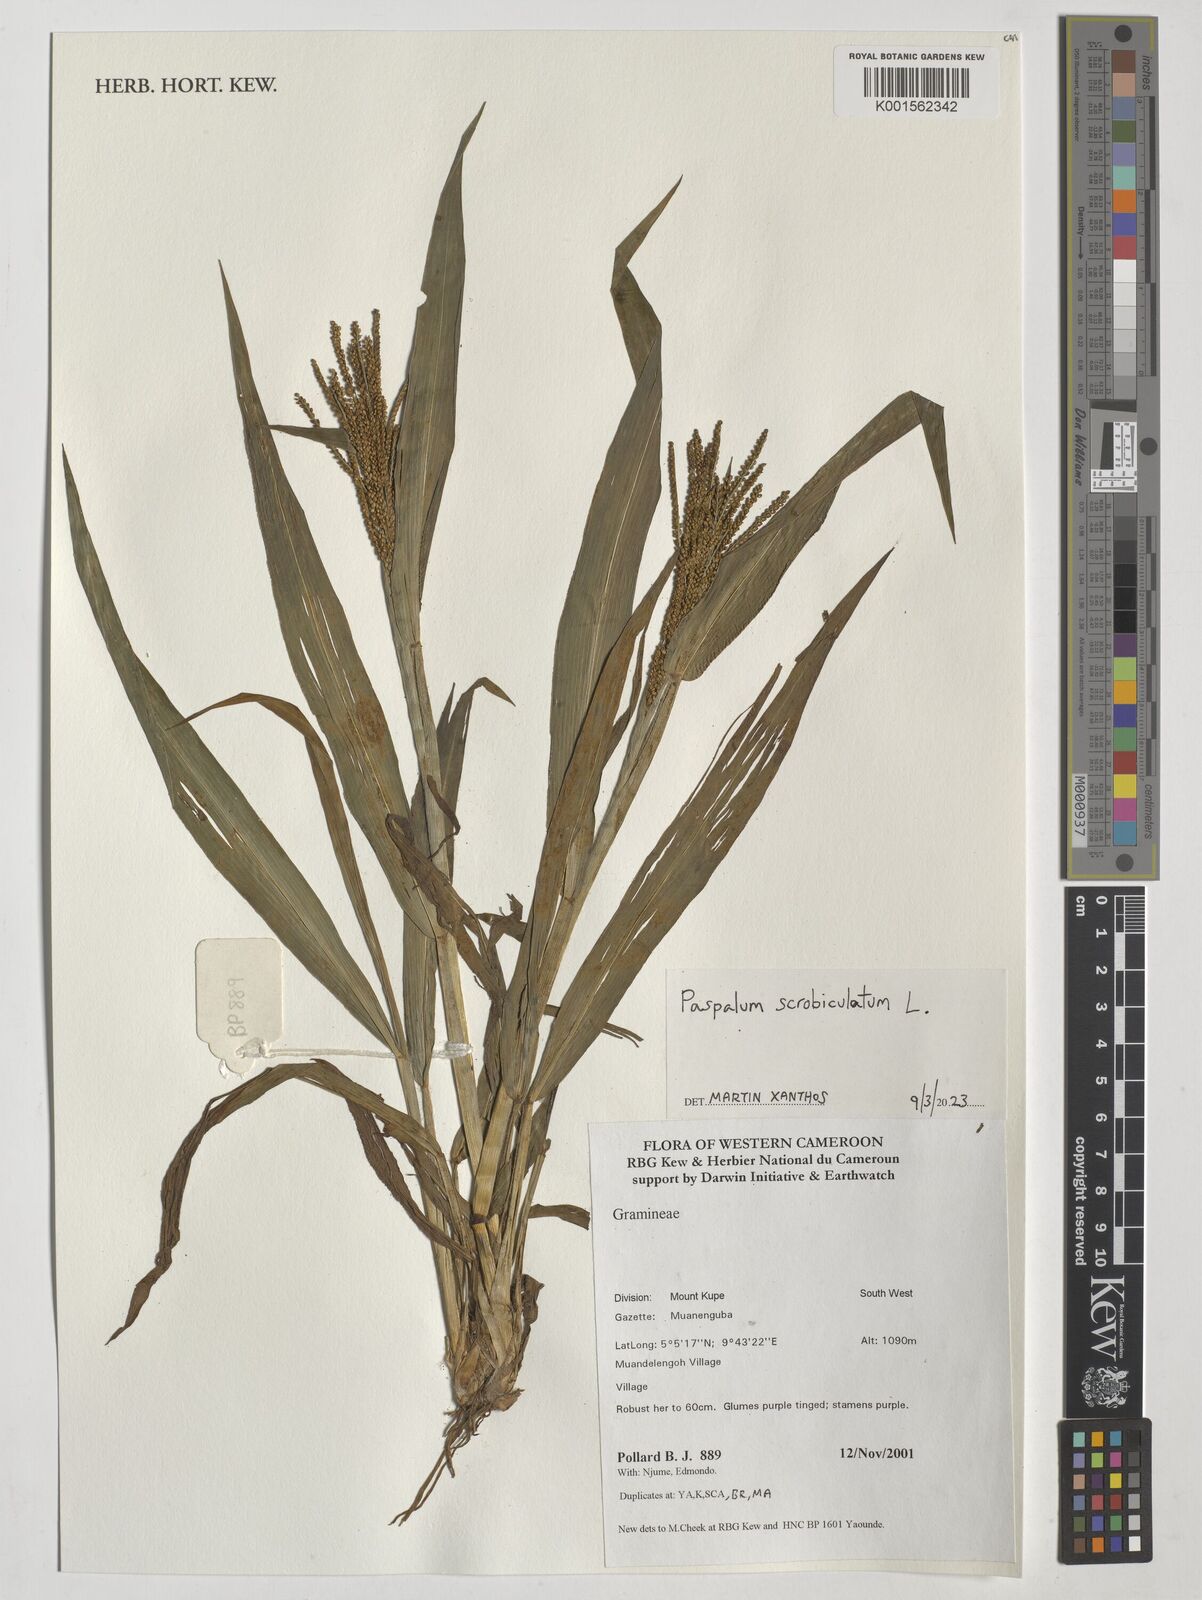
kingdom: Plantae
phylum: Tracheophyta
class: Liliopsida
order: Poales
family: Poaceae
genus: Paspalum
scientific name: Paspalum scrobiculatum
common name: Kodo millet
